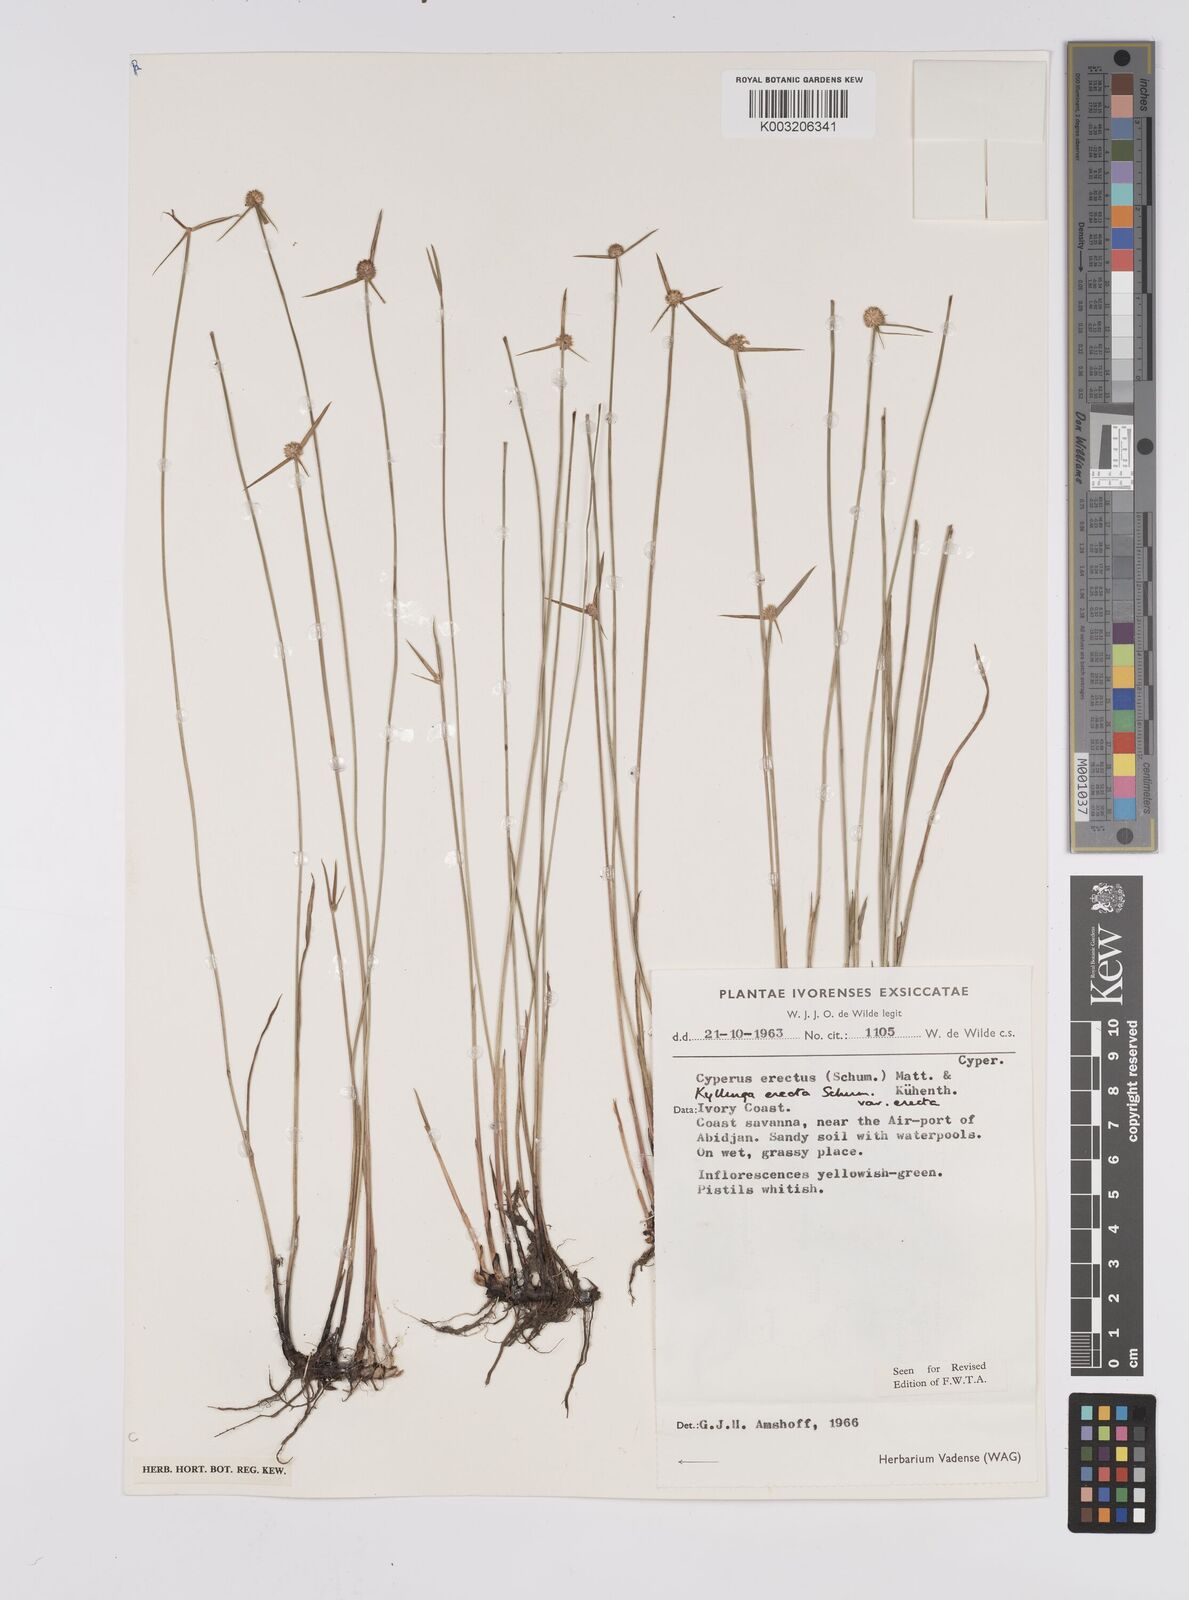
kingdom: Plantae
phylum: Tracheophyta
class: Liliopsida
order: Poales
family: Cyperaceae
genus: Cyperus
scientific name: Cyperus erectus
